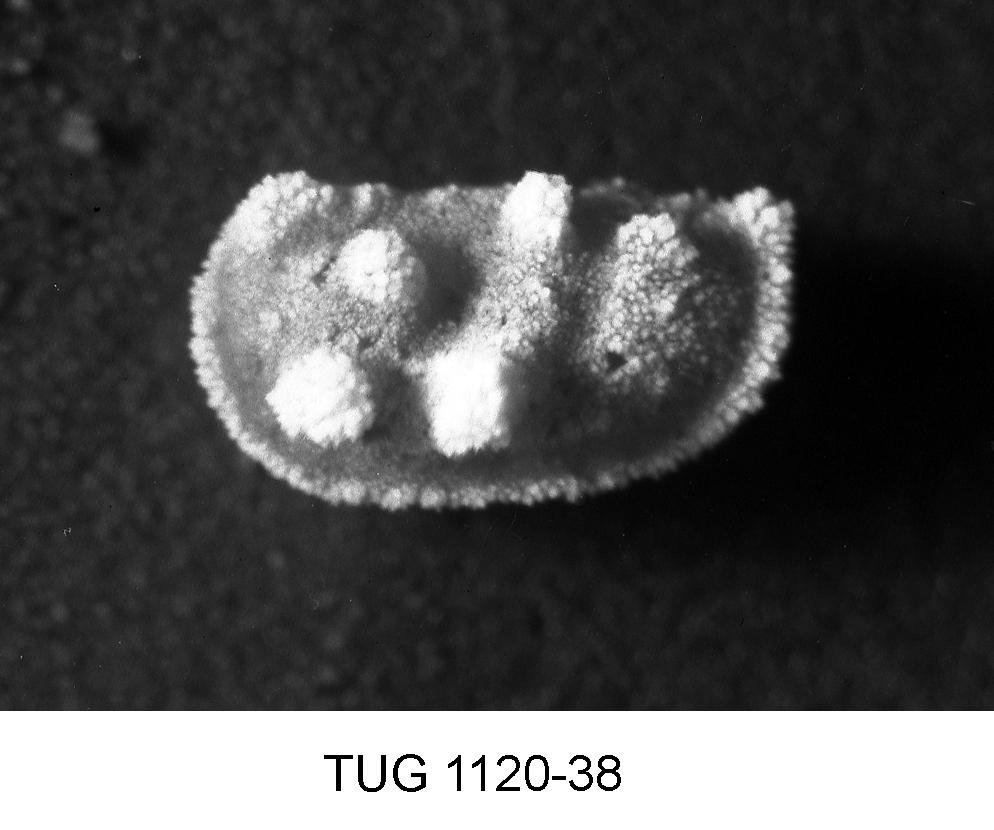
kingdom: Animalia
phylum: Arthropoda
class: Ostracoda
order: Palaeocopida
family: Ctenonotellidae
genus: Homeokiesowia
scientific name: Homeokiesowia
